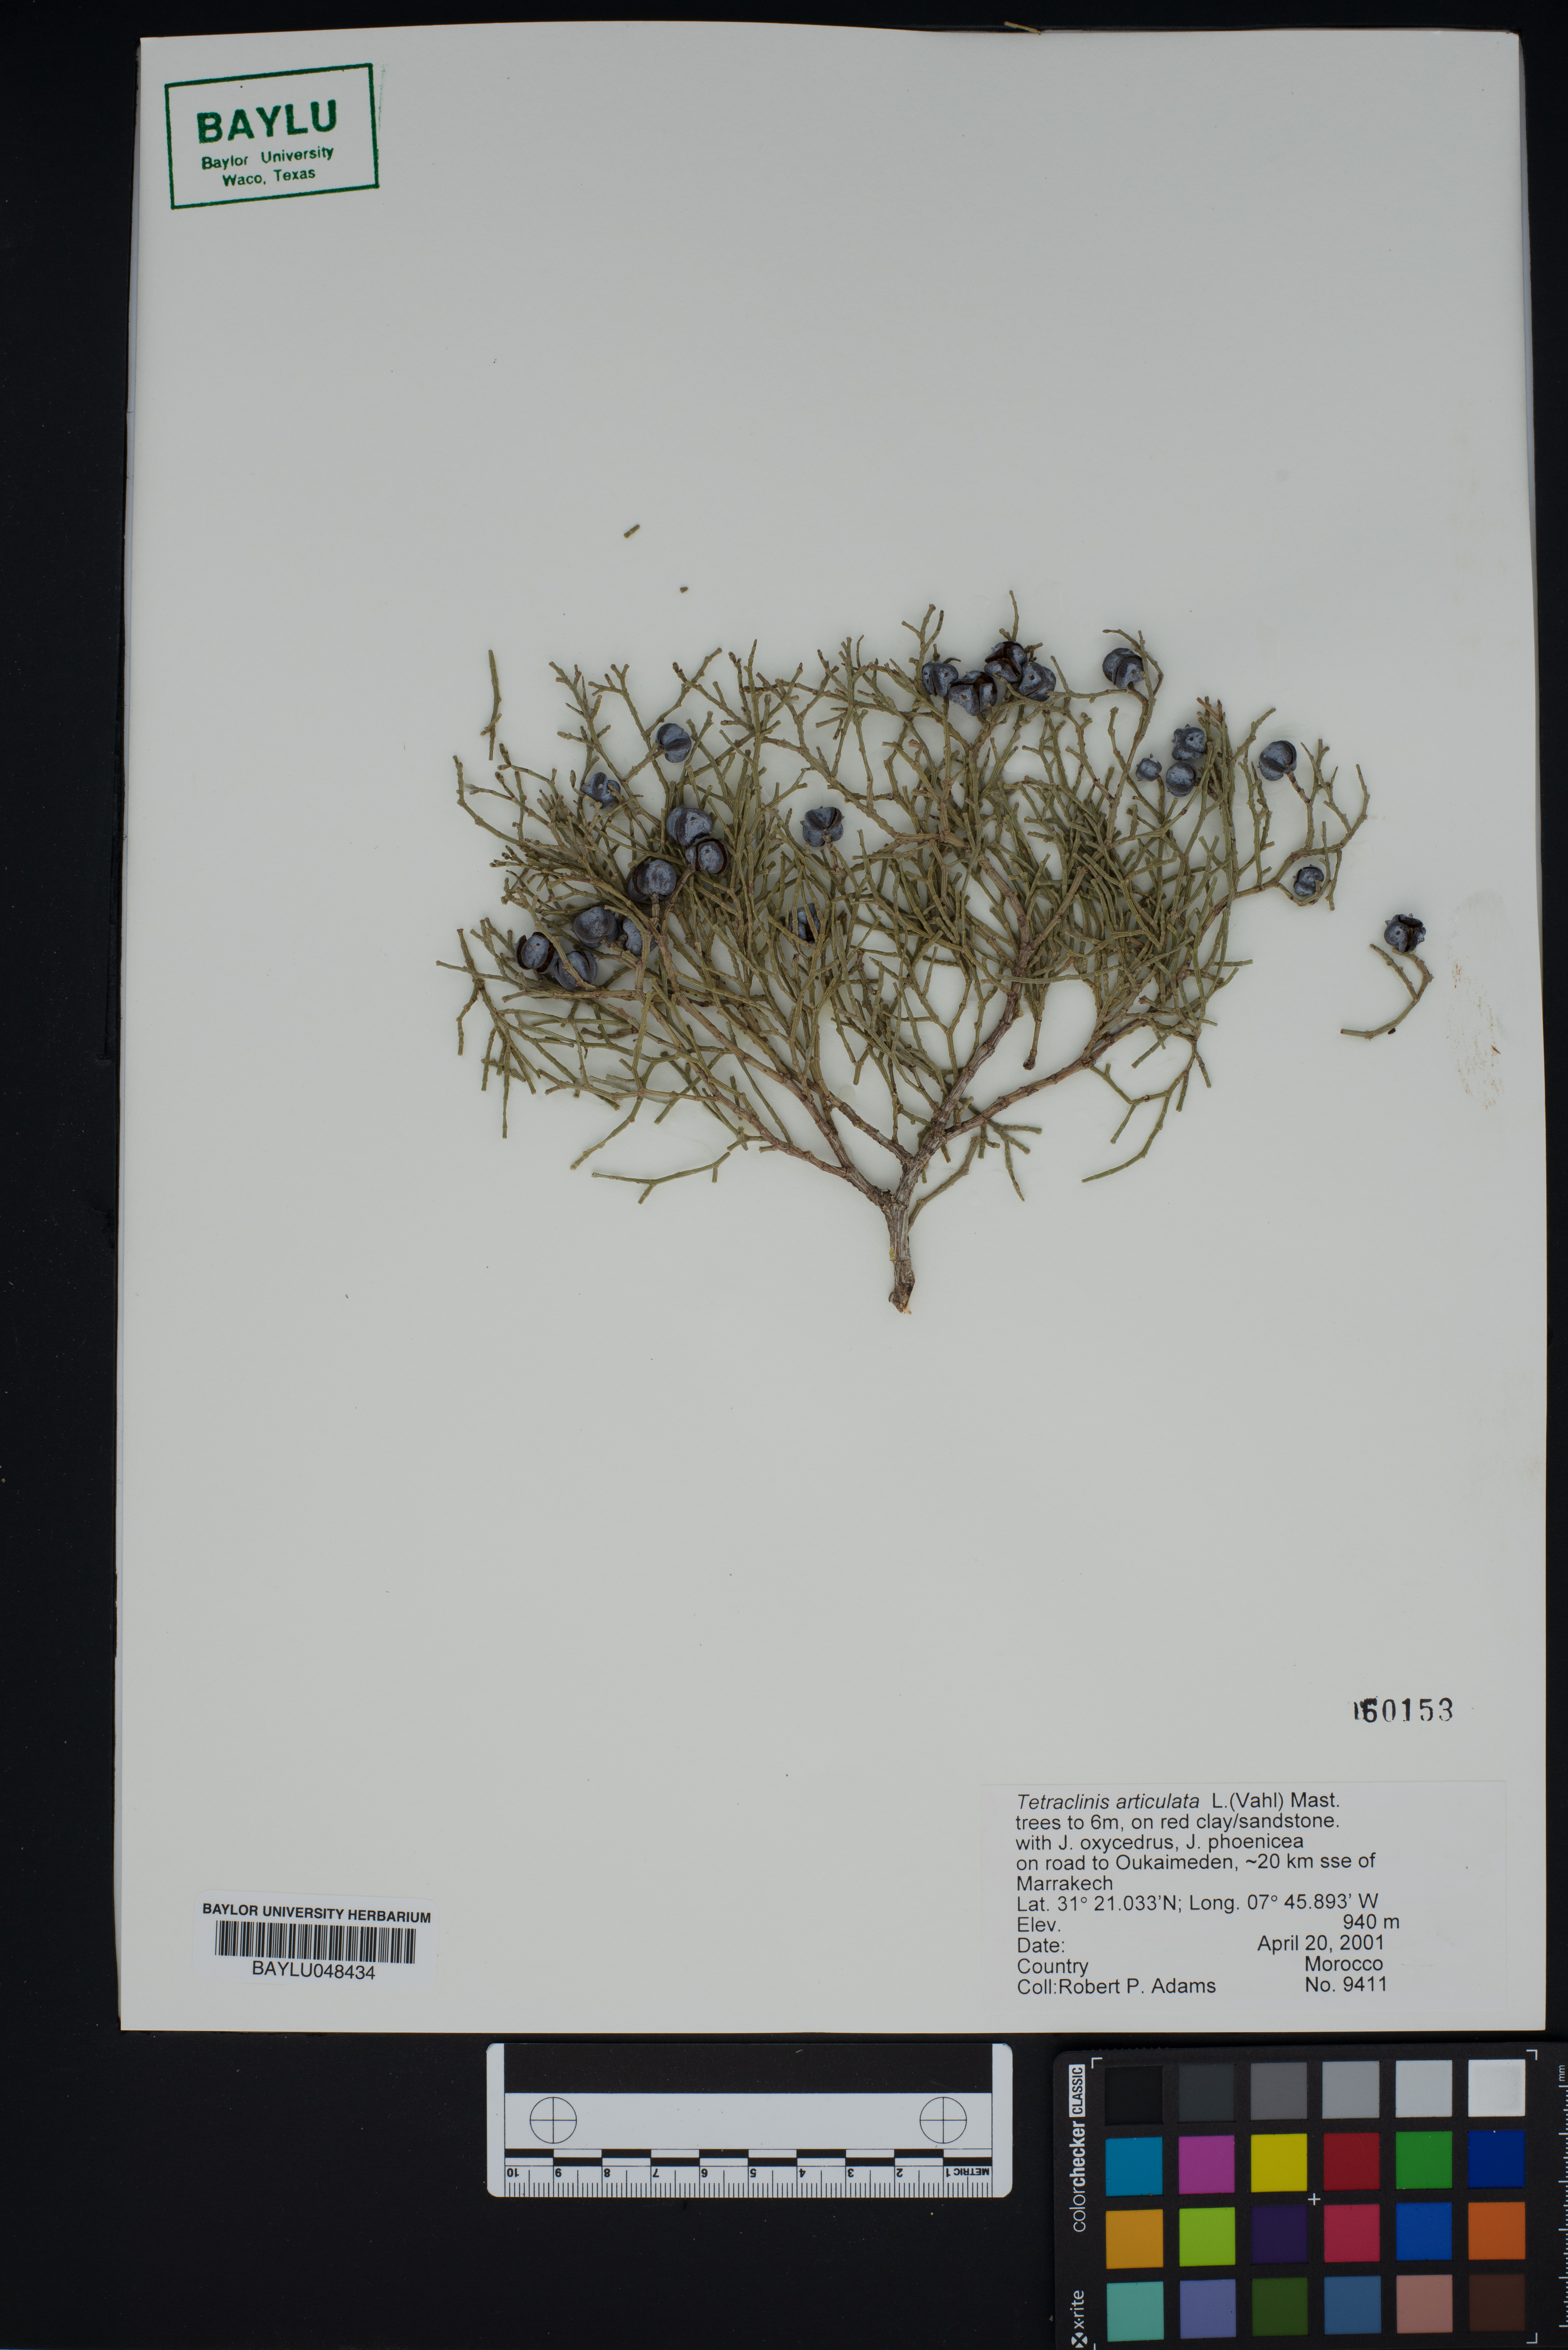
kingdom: Plantae
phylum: Tracheophyta
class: Pinopsida
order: Pinales
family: Cupressaceae
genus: Tetraclinis
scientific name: Tetraclinis articulata
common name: Sandarac
